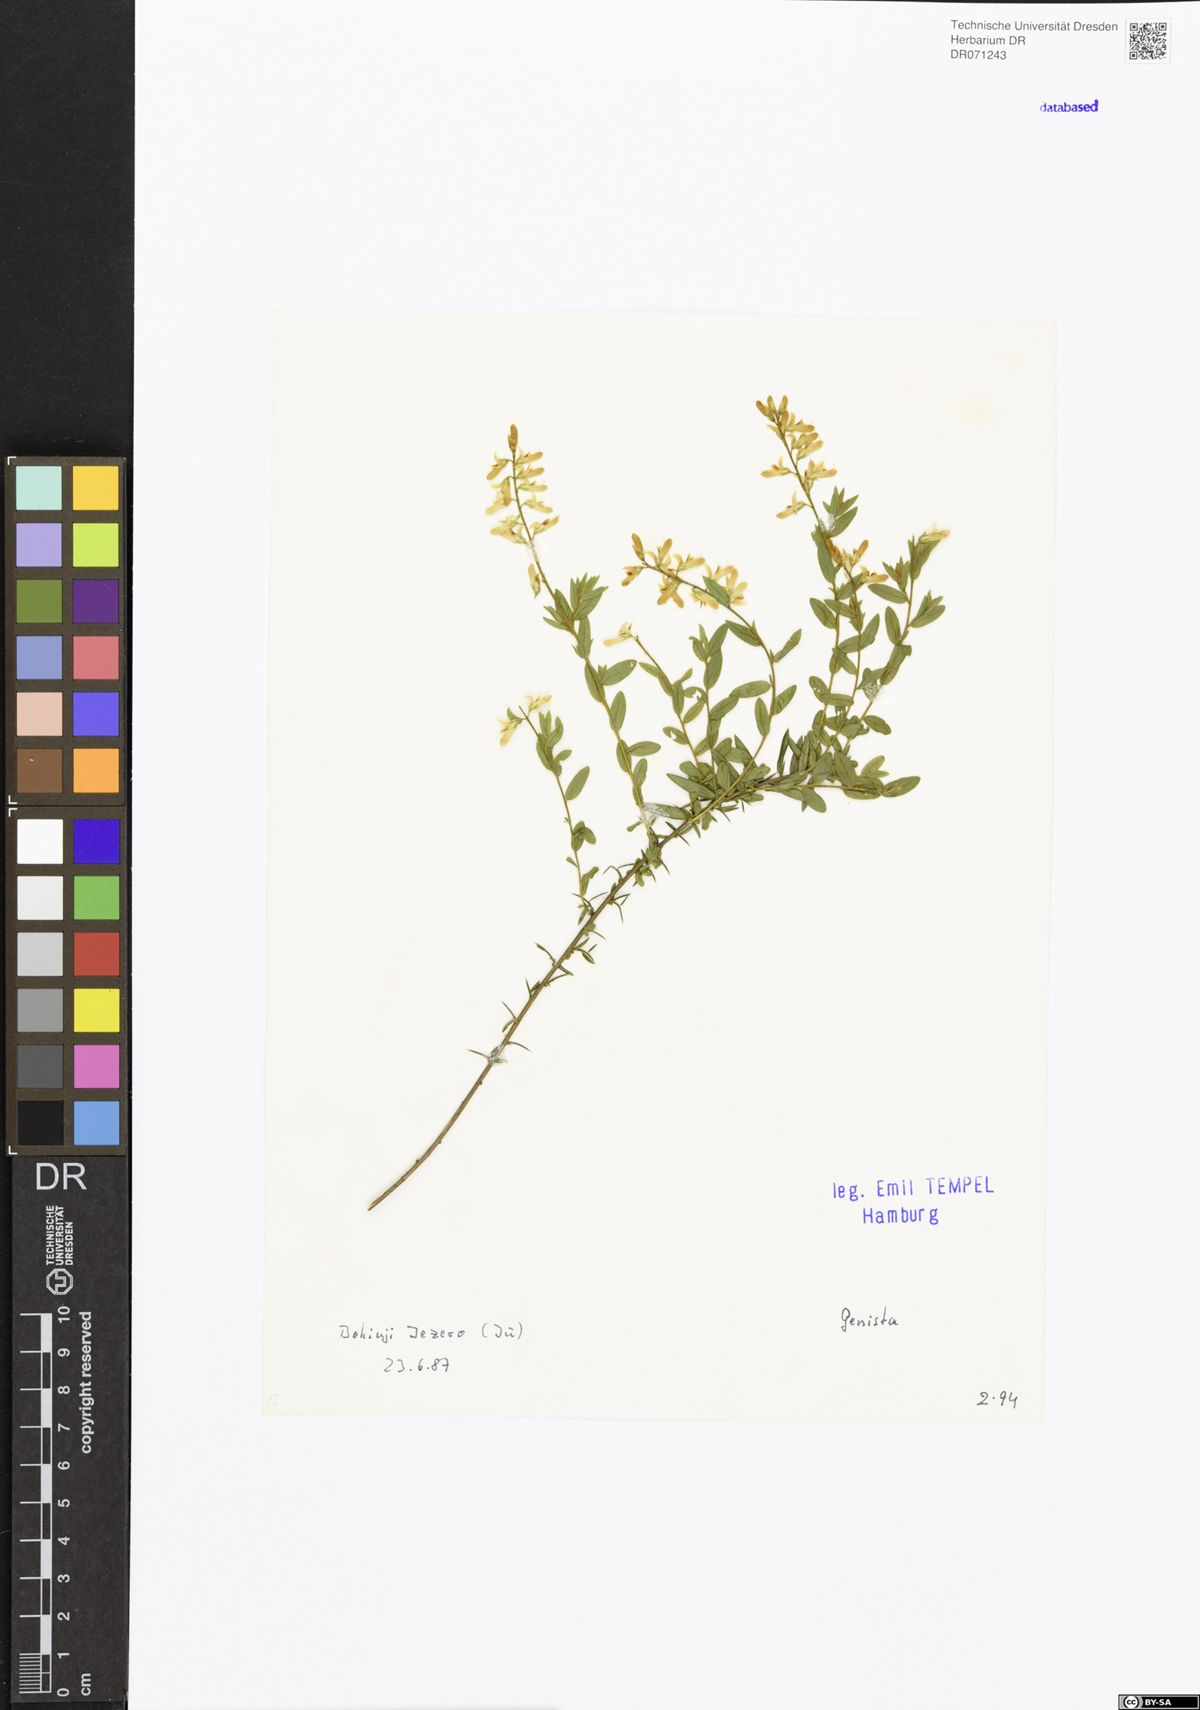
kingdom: Plantae
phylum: Tracheophyta
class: Magnoliopsida
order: Fabales
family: Fabaceae
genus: Genista
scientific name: Genista
